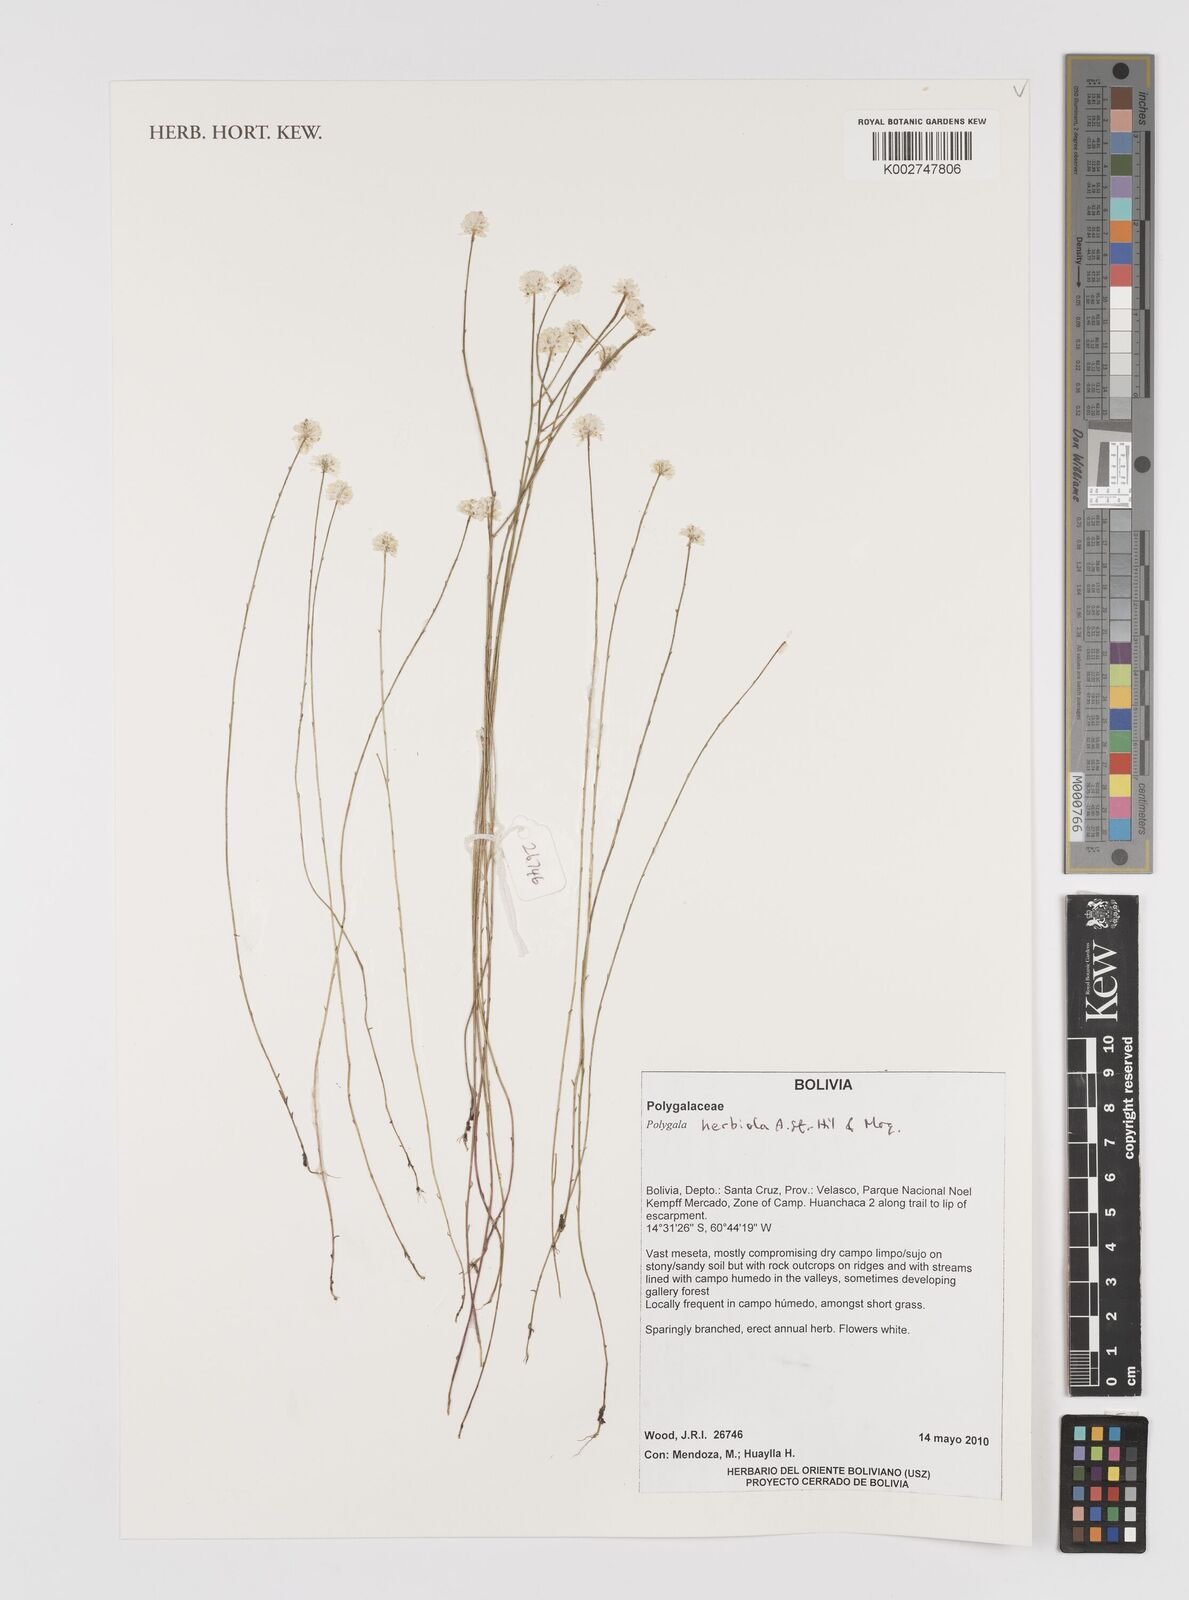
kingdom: Plantae
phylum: Tracheophyta
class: Magnoliopsida
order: Fabales
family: Polygalaceae
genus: Polygala
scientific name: Polygala herbiola
